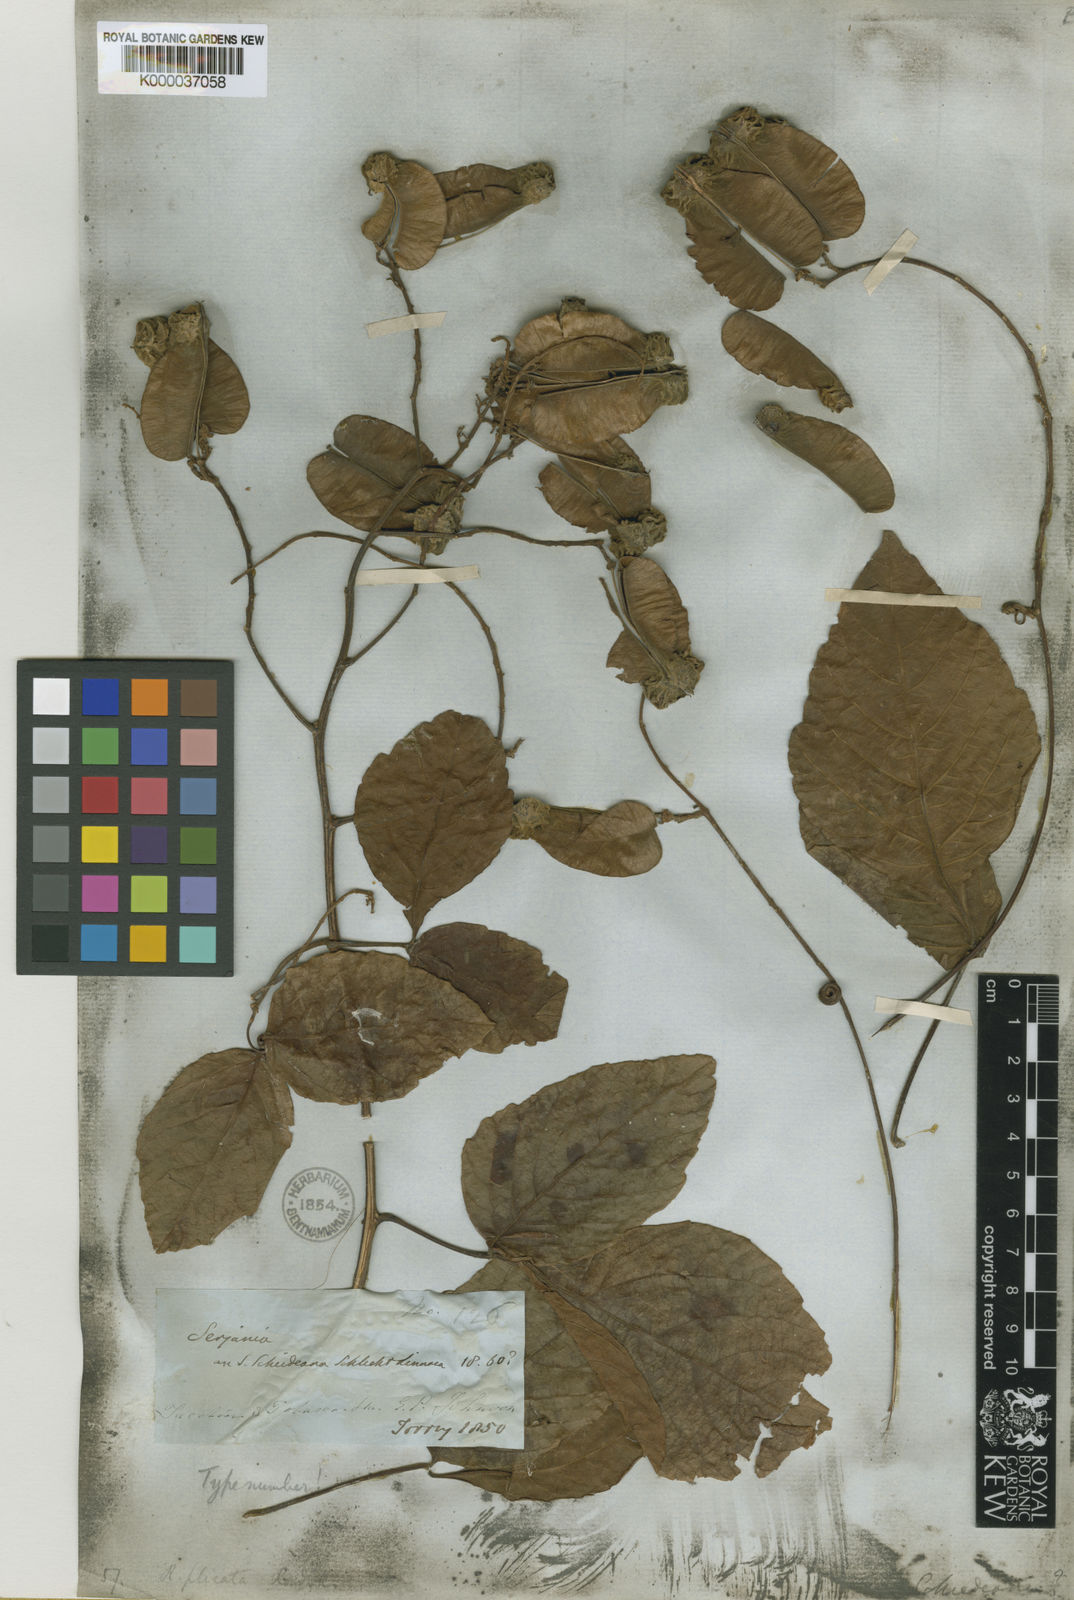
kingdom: Plantae
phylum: Tracheophyta
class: Magnoliopsida
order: Sapindales
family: Sapindaceae
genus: Serjania
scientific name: Serjania plicata
